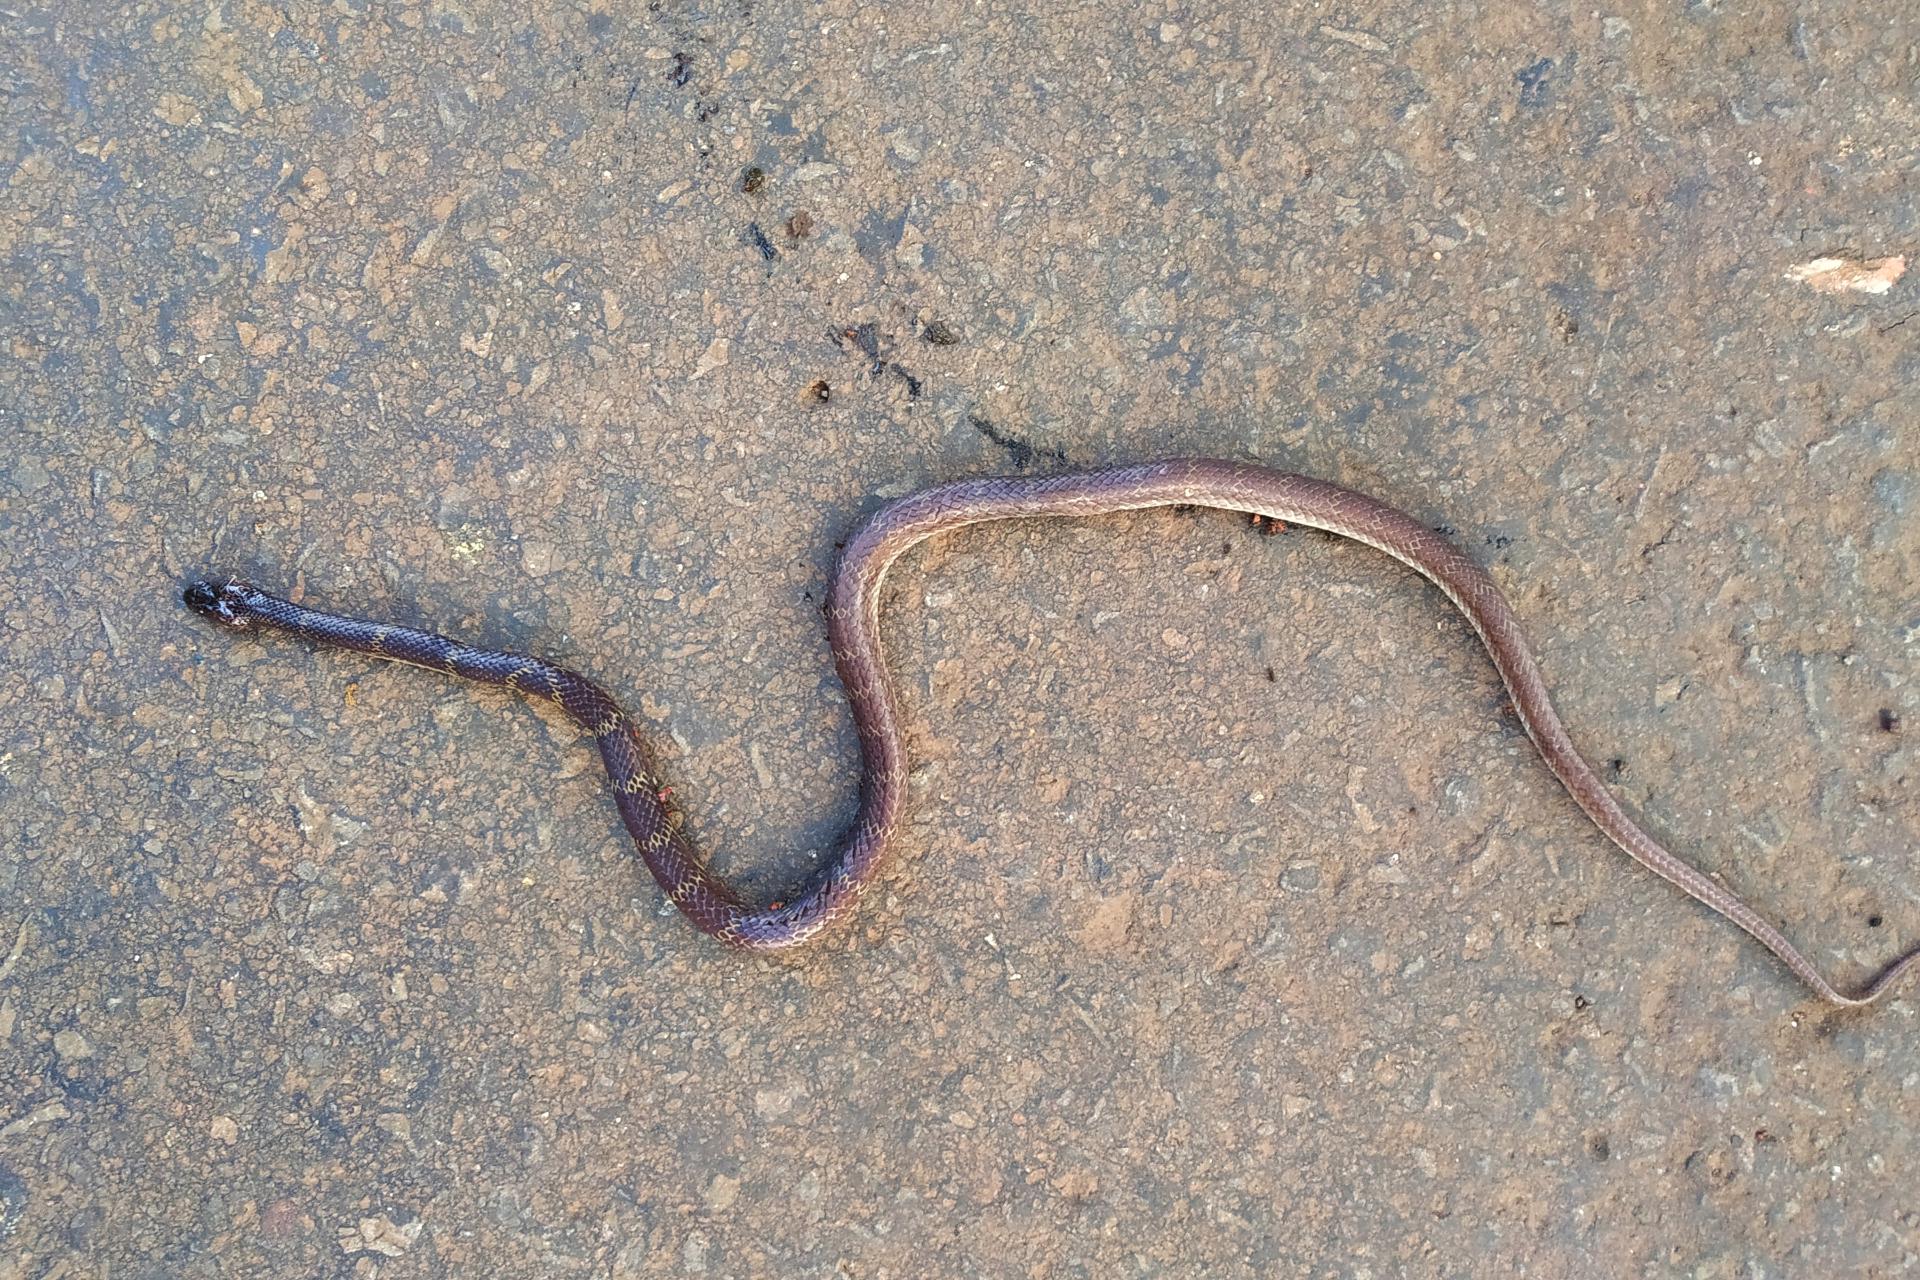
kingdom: Animalia
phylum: Chordata
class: Squamata
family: Colubridae
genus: Lycodon
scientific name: Lycodon
